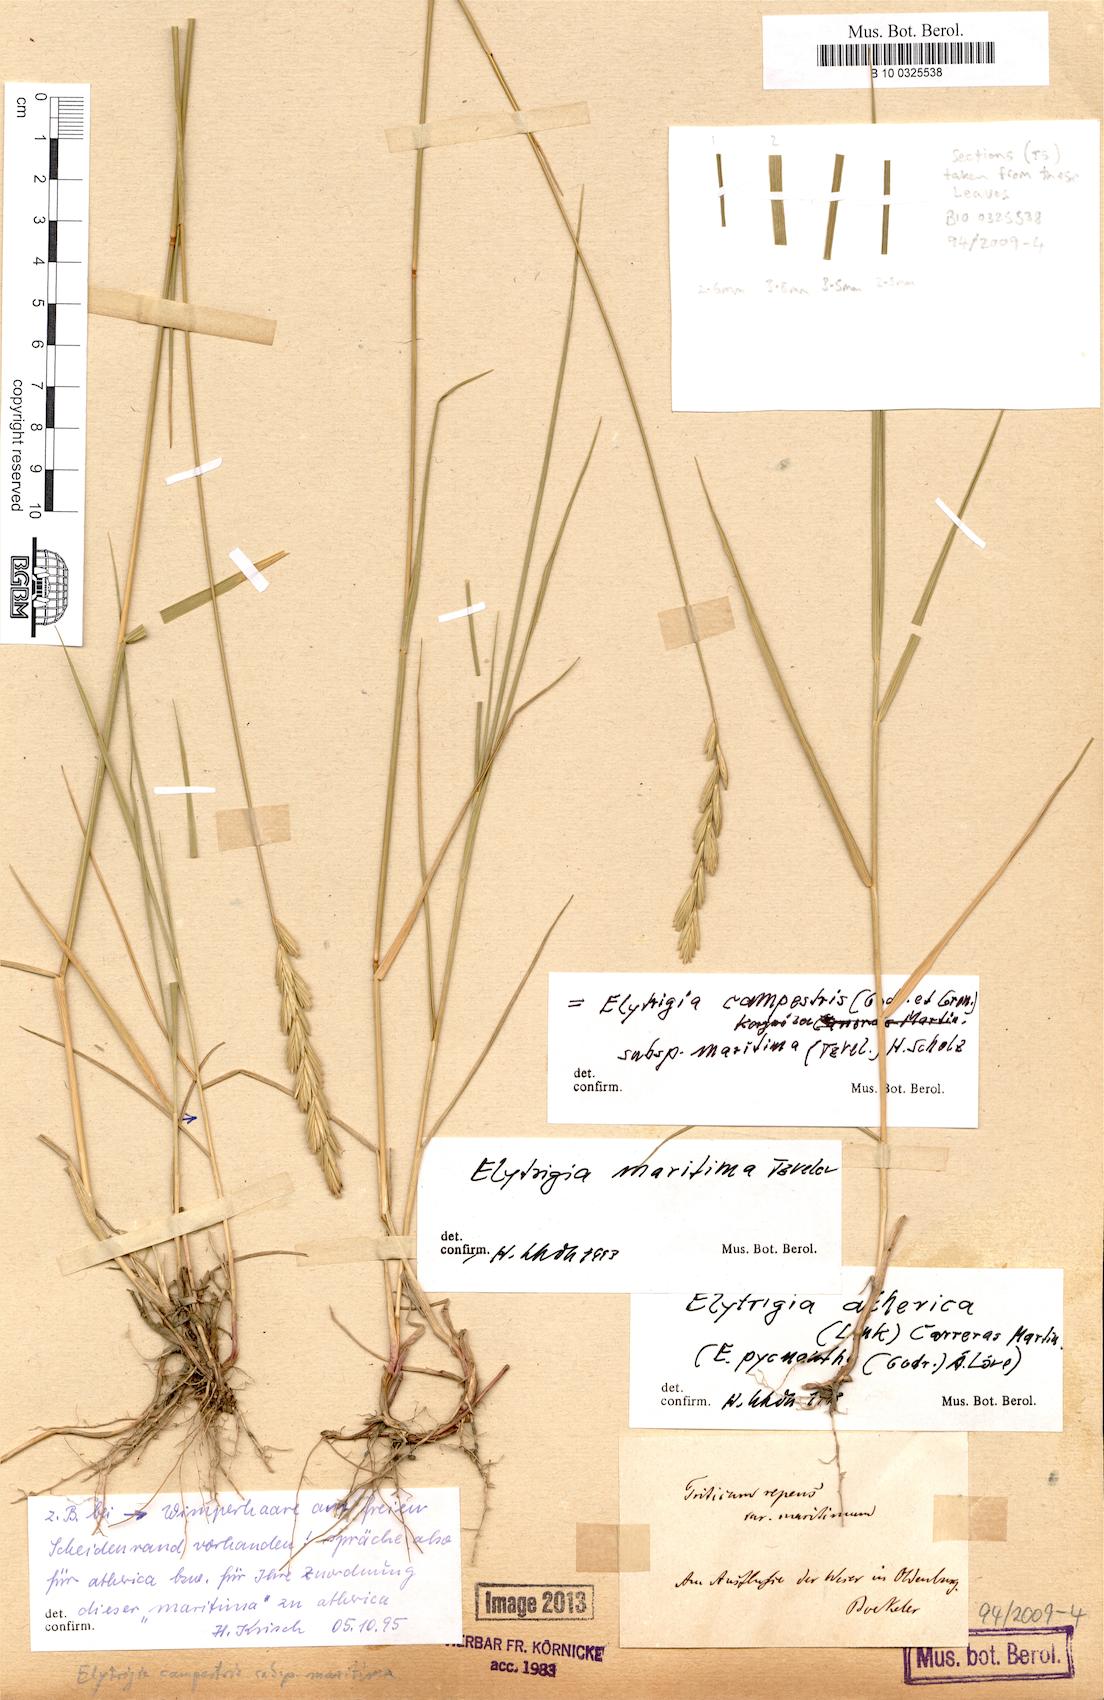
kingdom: Plantae
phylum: Tracheophyta
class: Liliopsida
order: Poales
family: Poaceae
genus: Elymus
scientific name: Elymus repens
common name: Quackgrass
